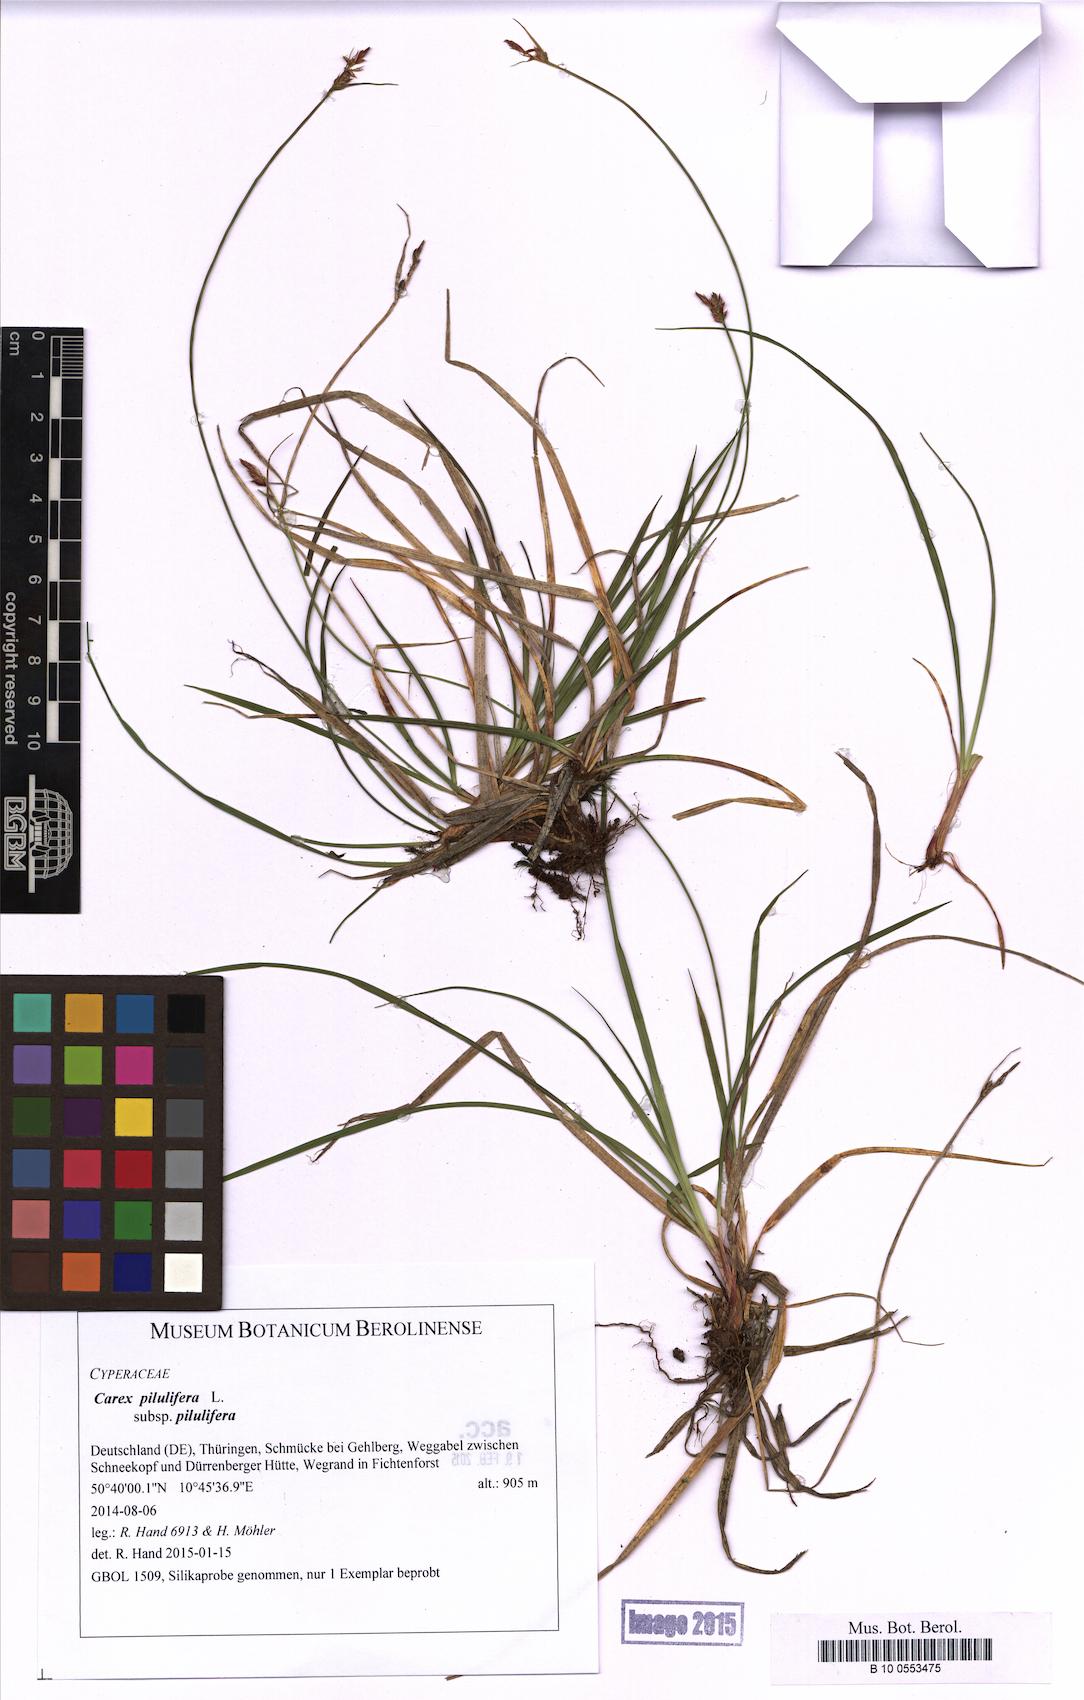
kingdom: Plantae
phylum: Tracheophyta
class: Liliopsida
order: Poales
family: Cyperaceae
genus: Carex
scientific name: Carex pilulifera
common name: Pill sedge
